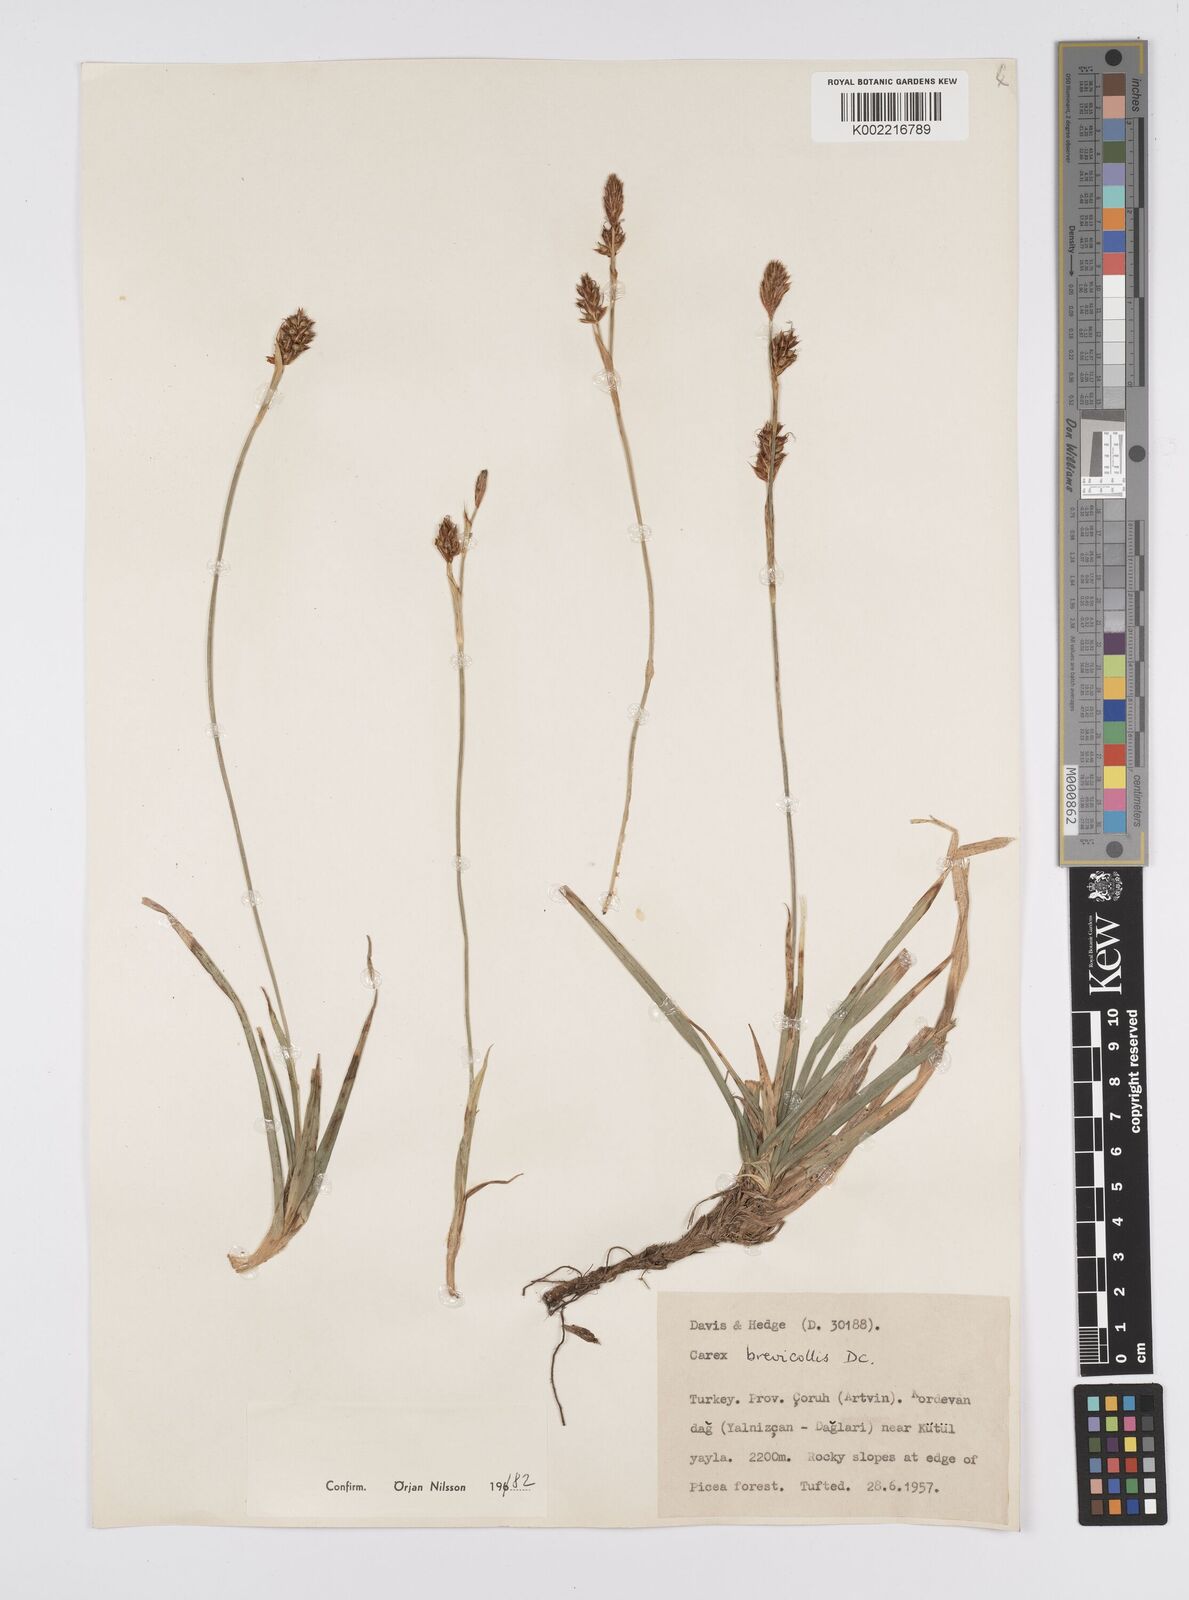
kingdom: Plantae
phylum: Tracheophyta
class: Liliopsida
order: Poales
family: Cyperaceae
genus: Carex
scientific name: Carex brevicollis
